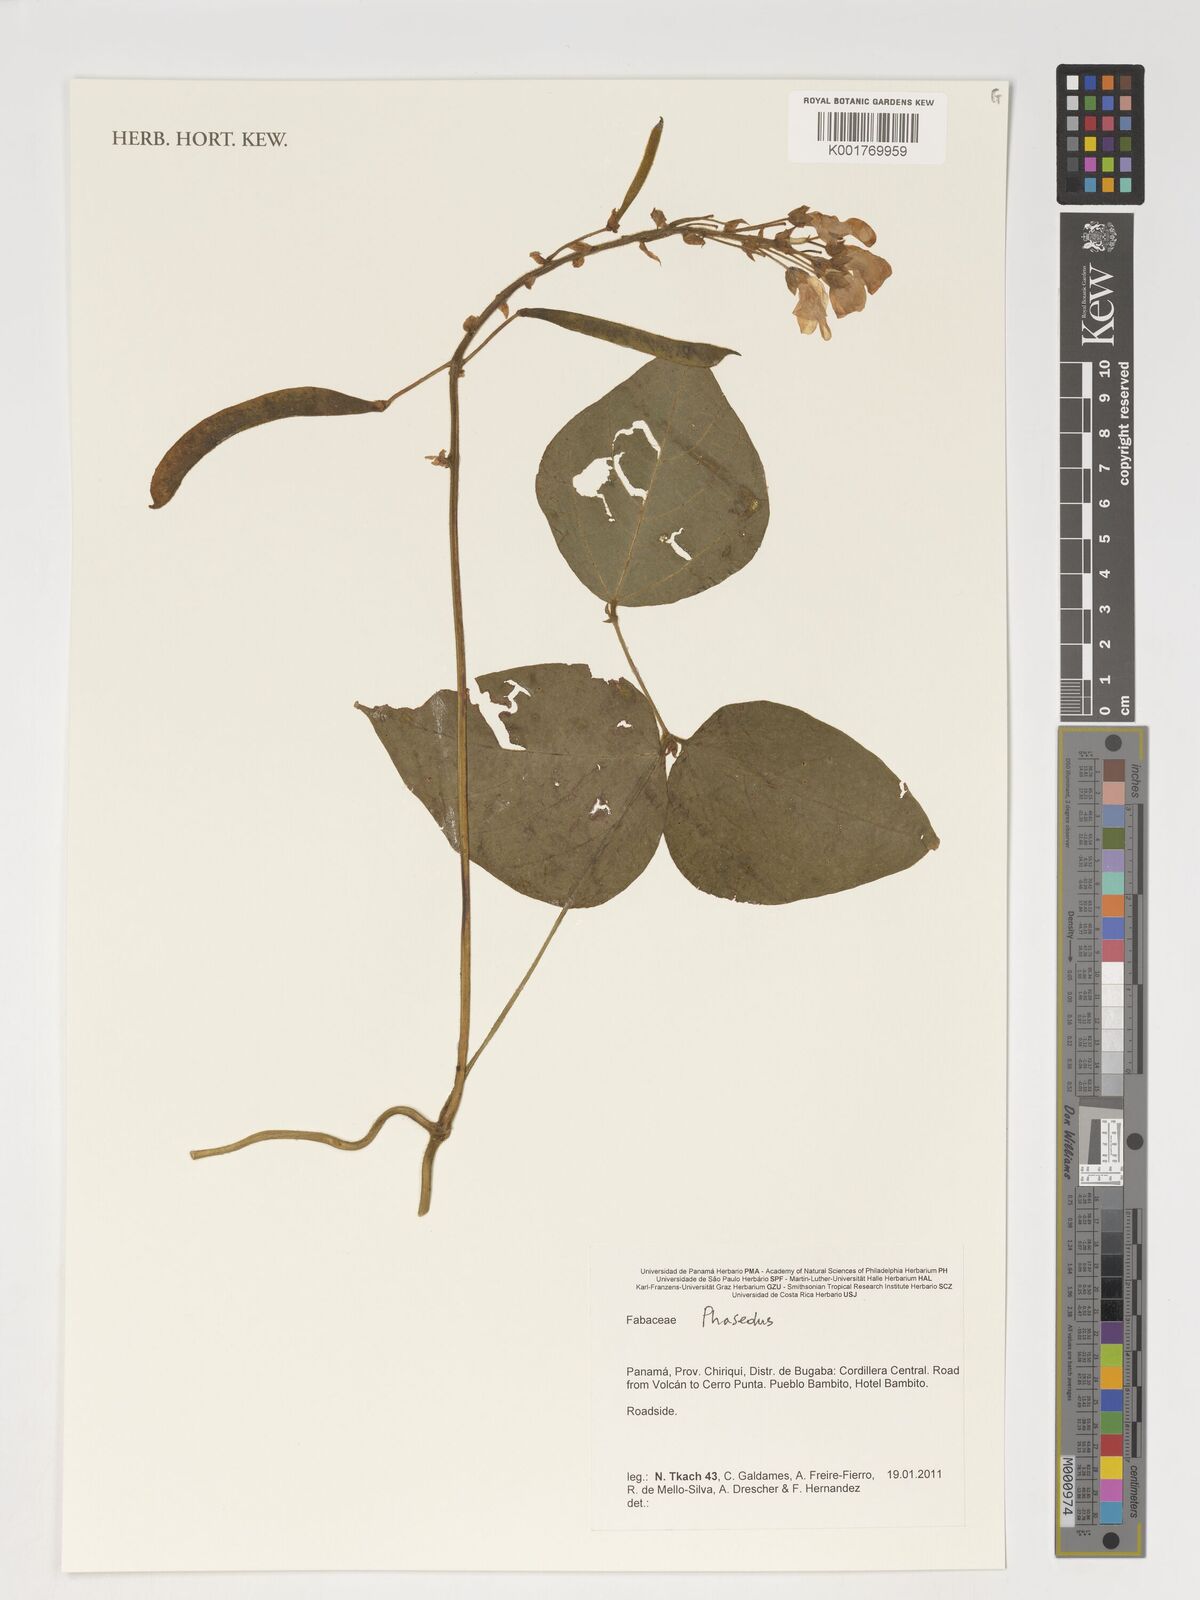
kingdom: Plantae
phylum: Tracheophyta
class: Magnoliopsida
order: Fabales
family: Fabaceae
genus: Phaseolus
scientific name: Phaseolus
